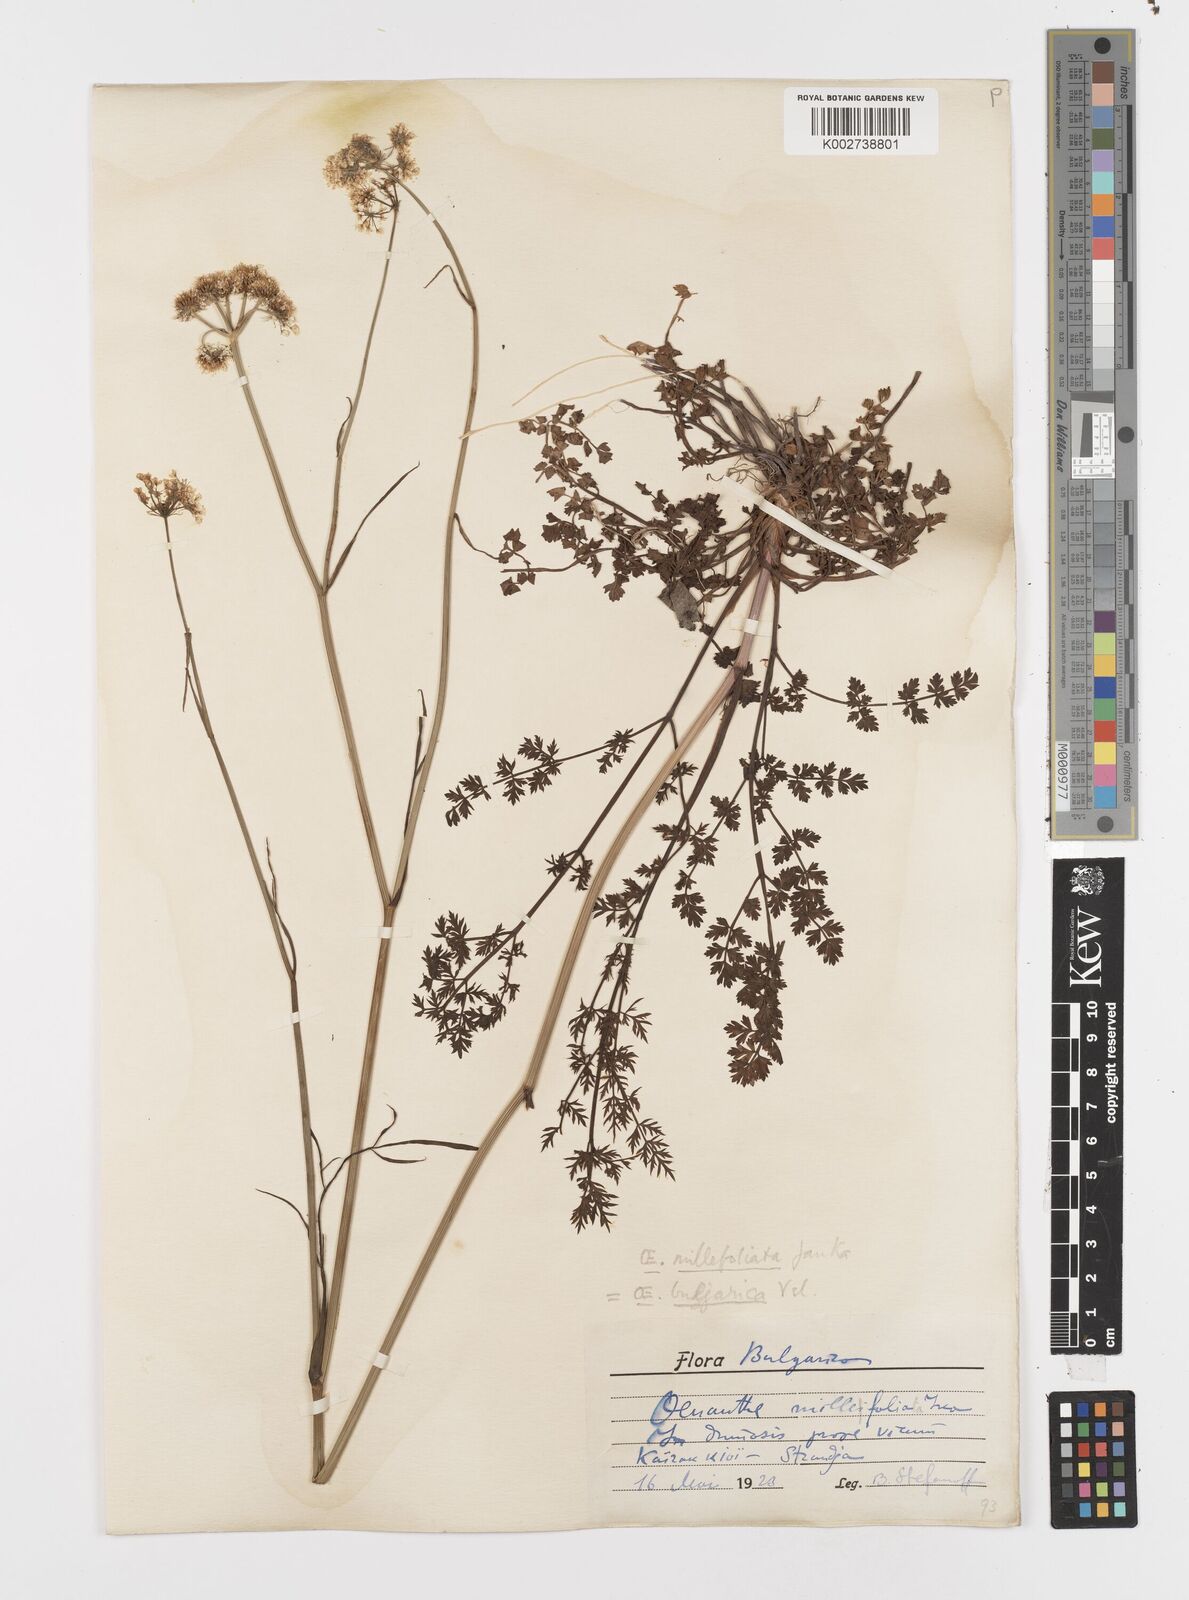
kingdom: Plantae
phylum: Tracheophyta
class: Magnoliopsida
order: Apiales
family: Apiaceae
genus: Oenanthe
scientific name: Oenanthe millefolia
